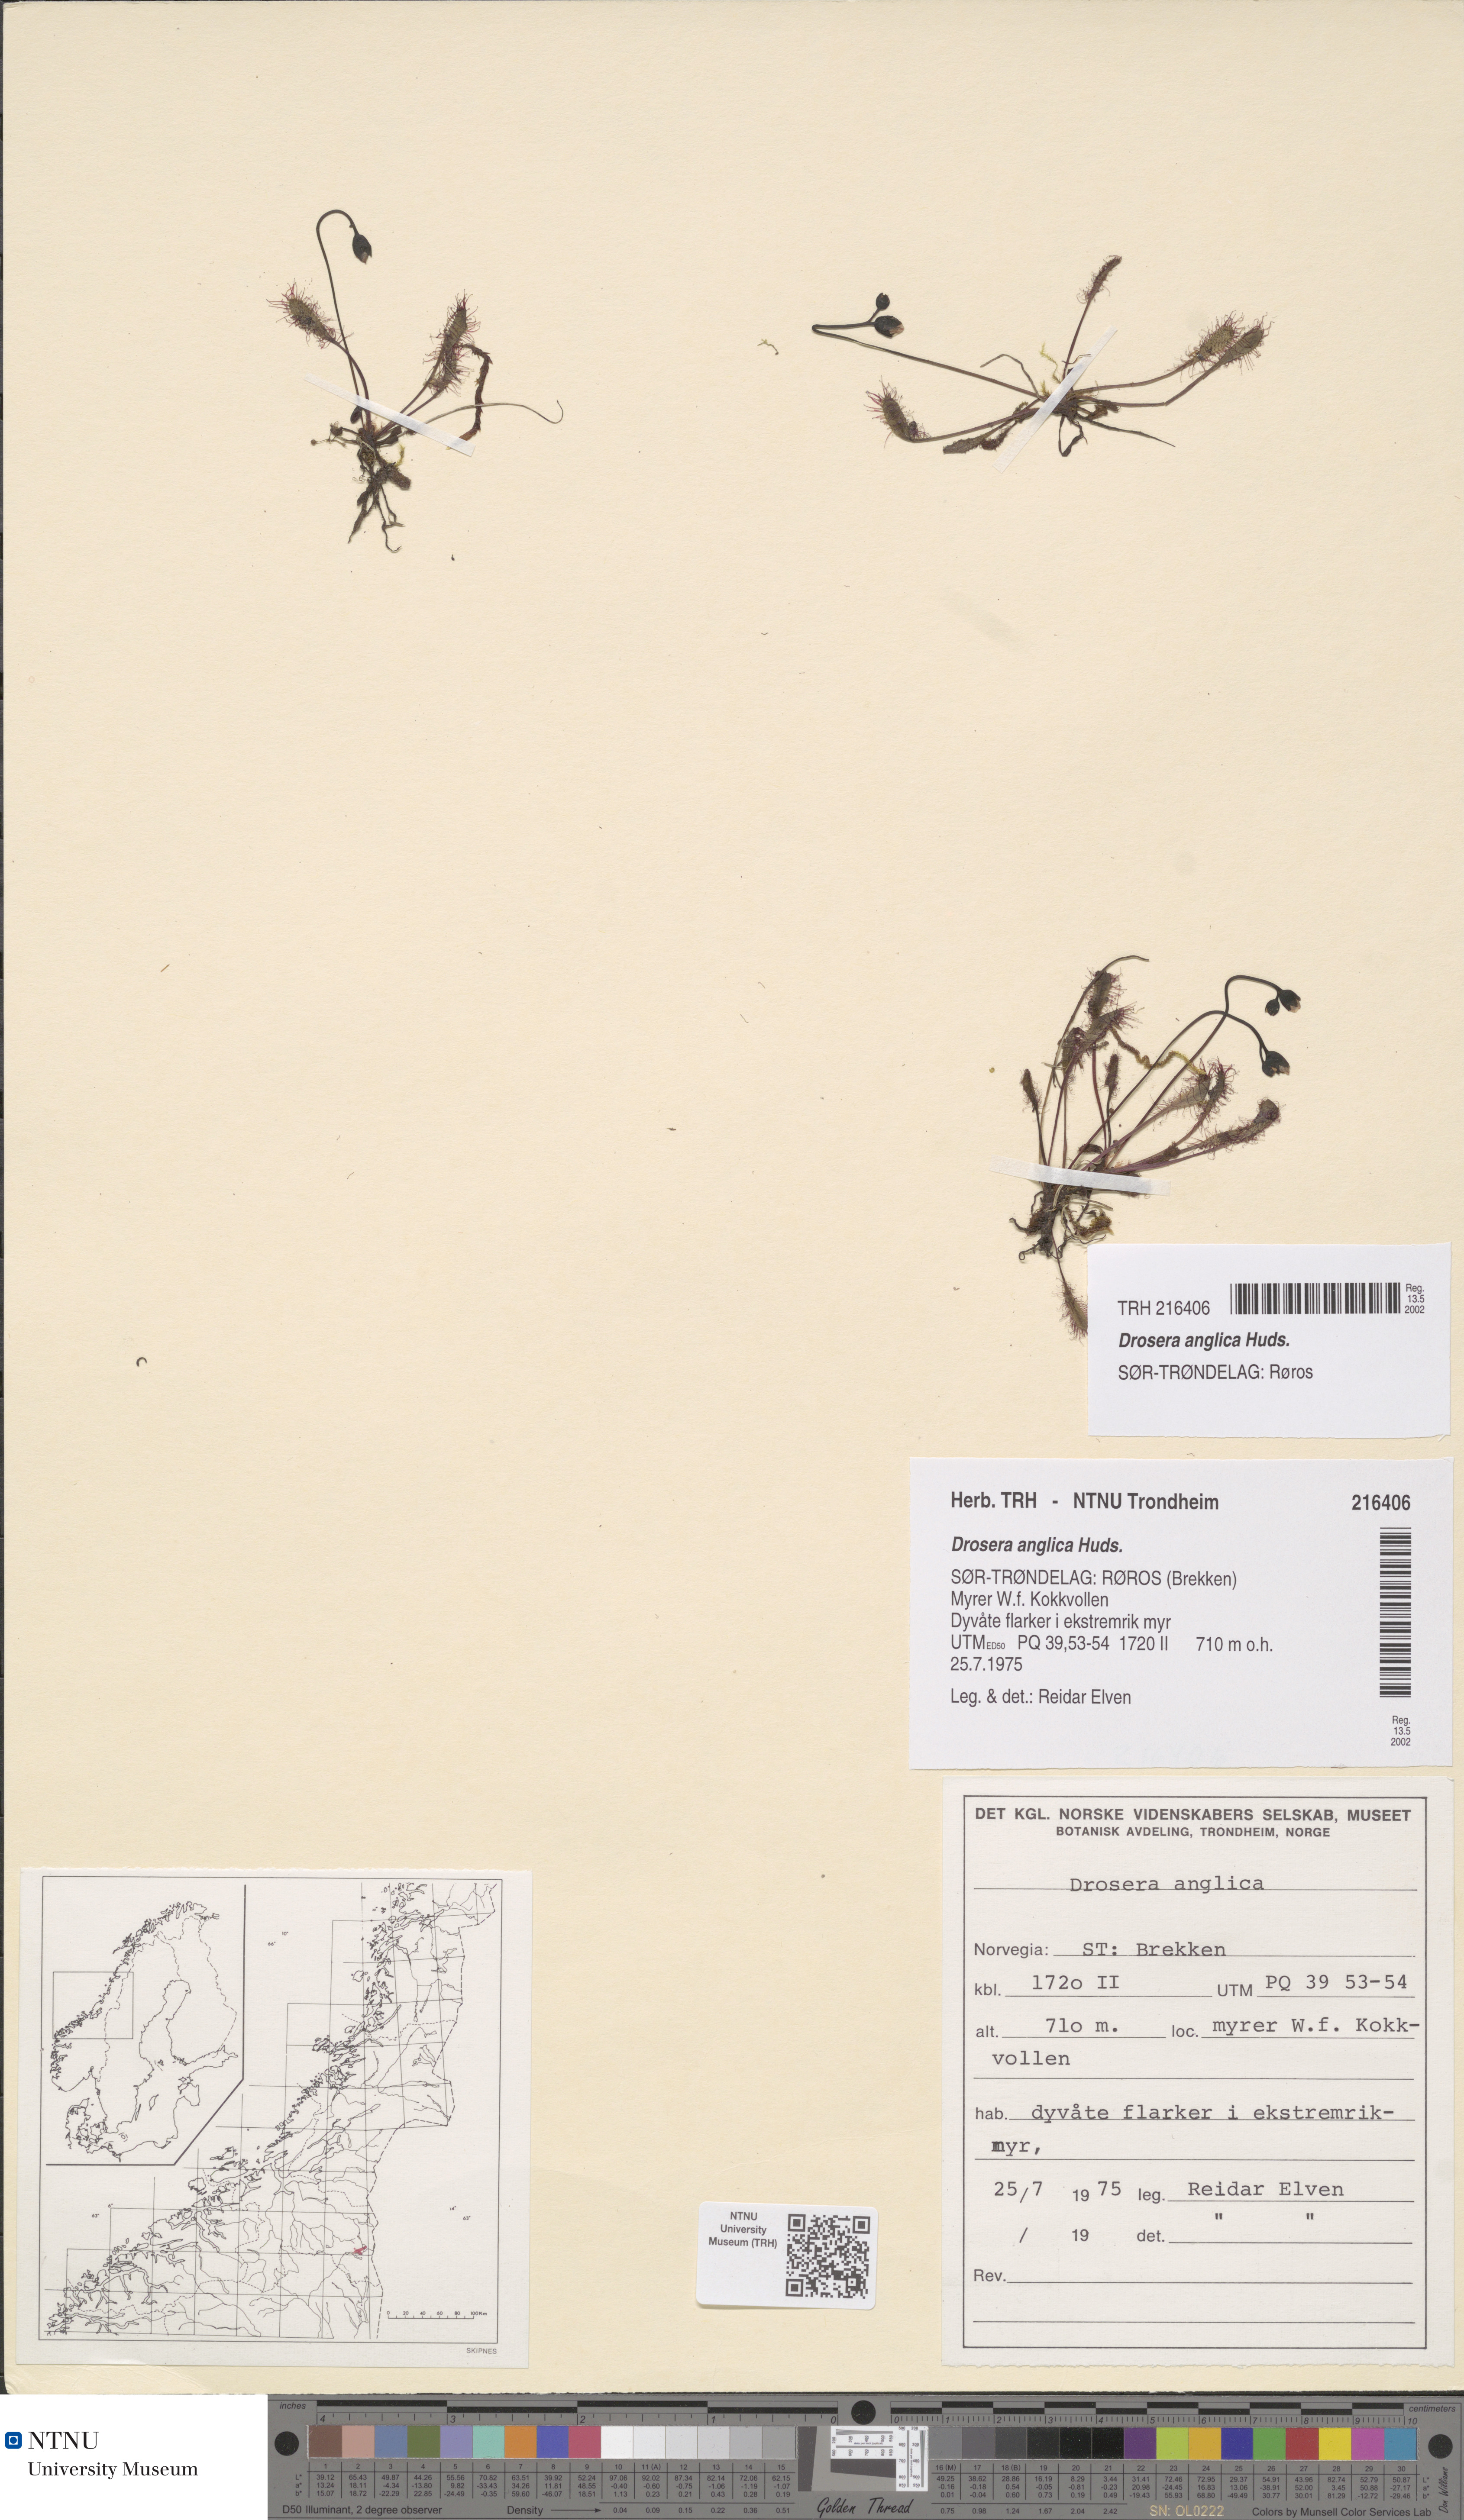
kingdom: Plantae
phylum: Tracheophyta
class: Magnoliopsida
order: Caryophyllales
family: Droseraceae
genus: Drosera
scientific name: Drosera anglica
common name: Great sundew
